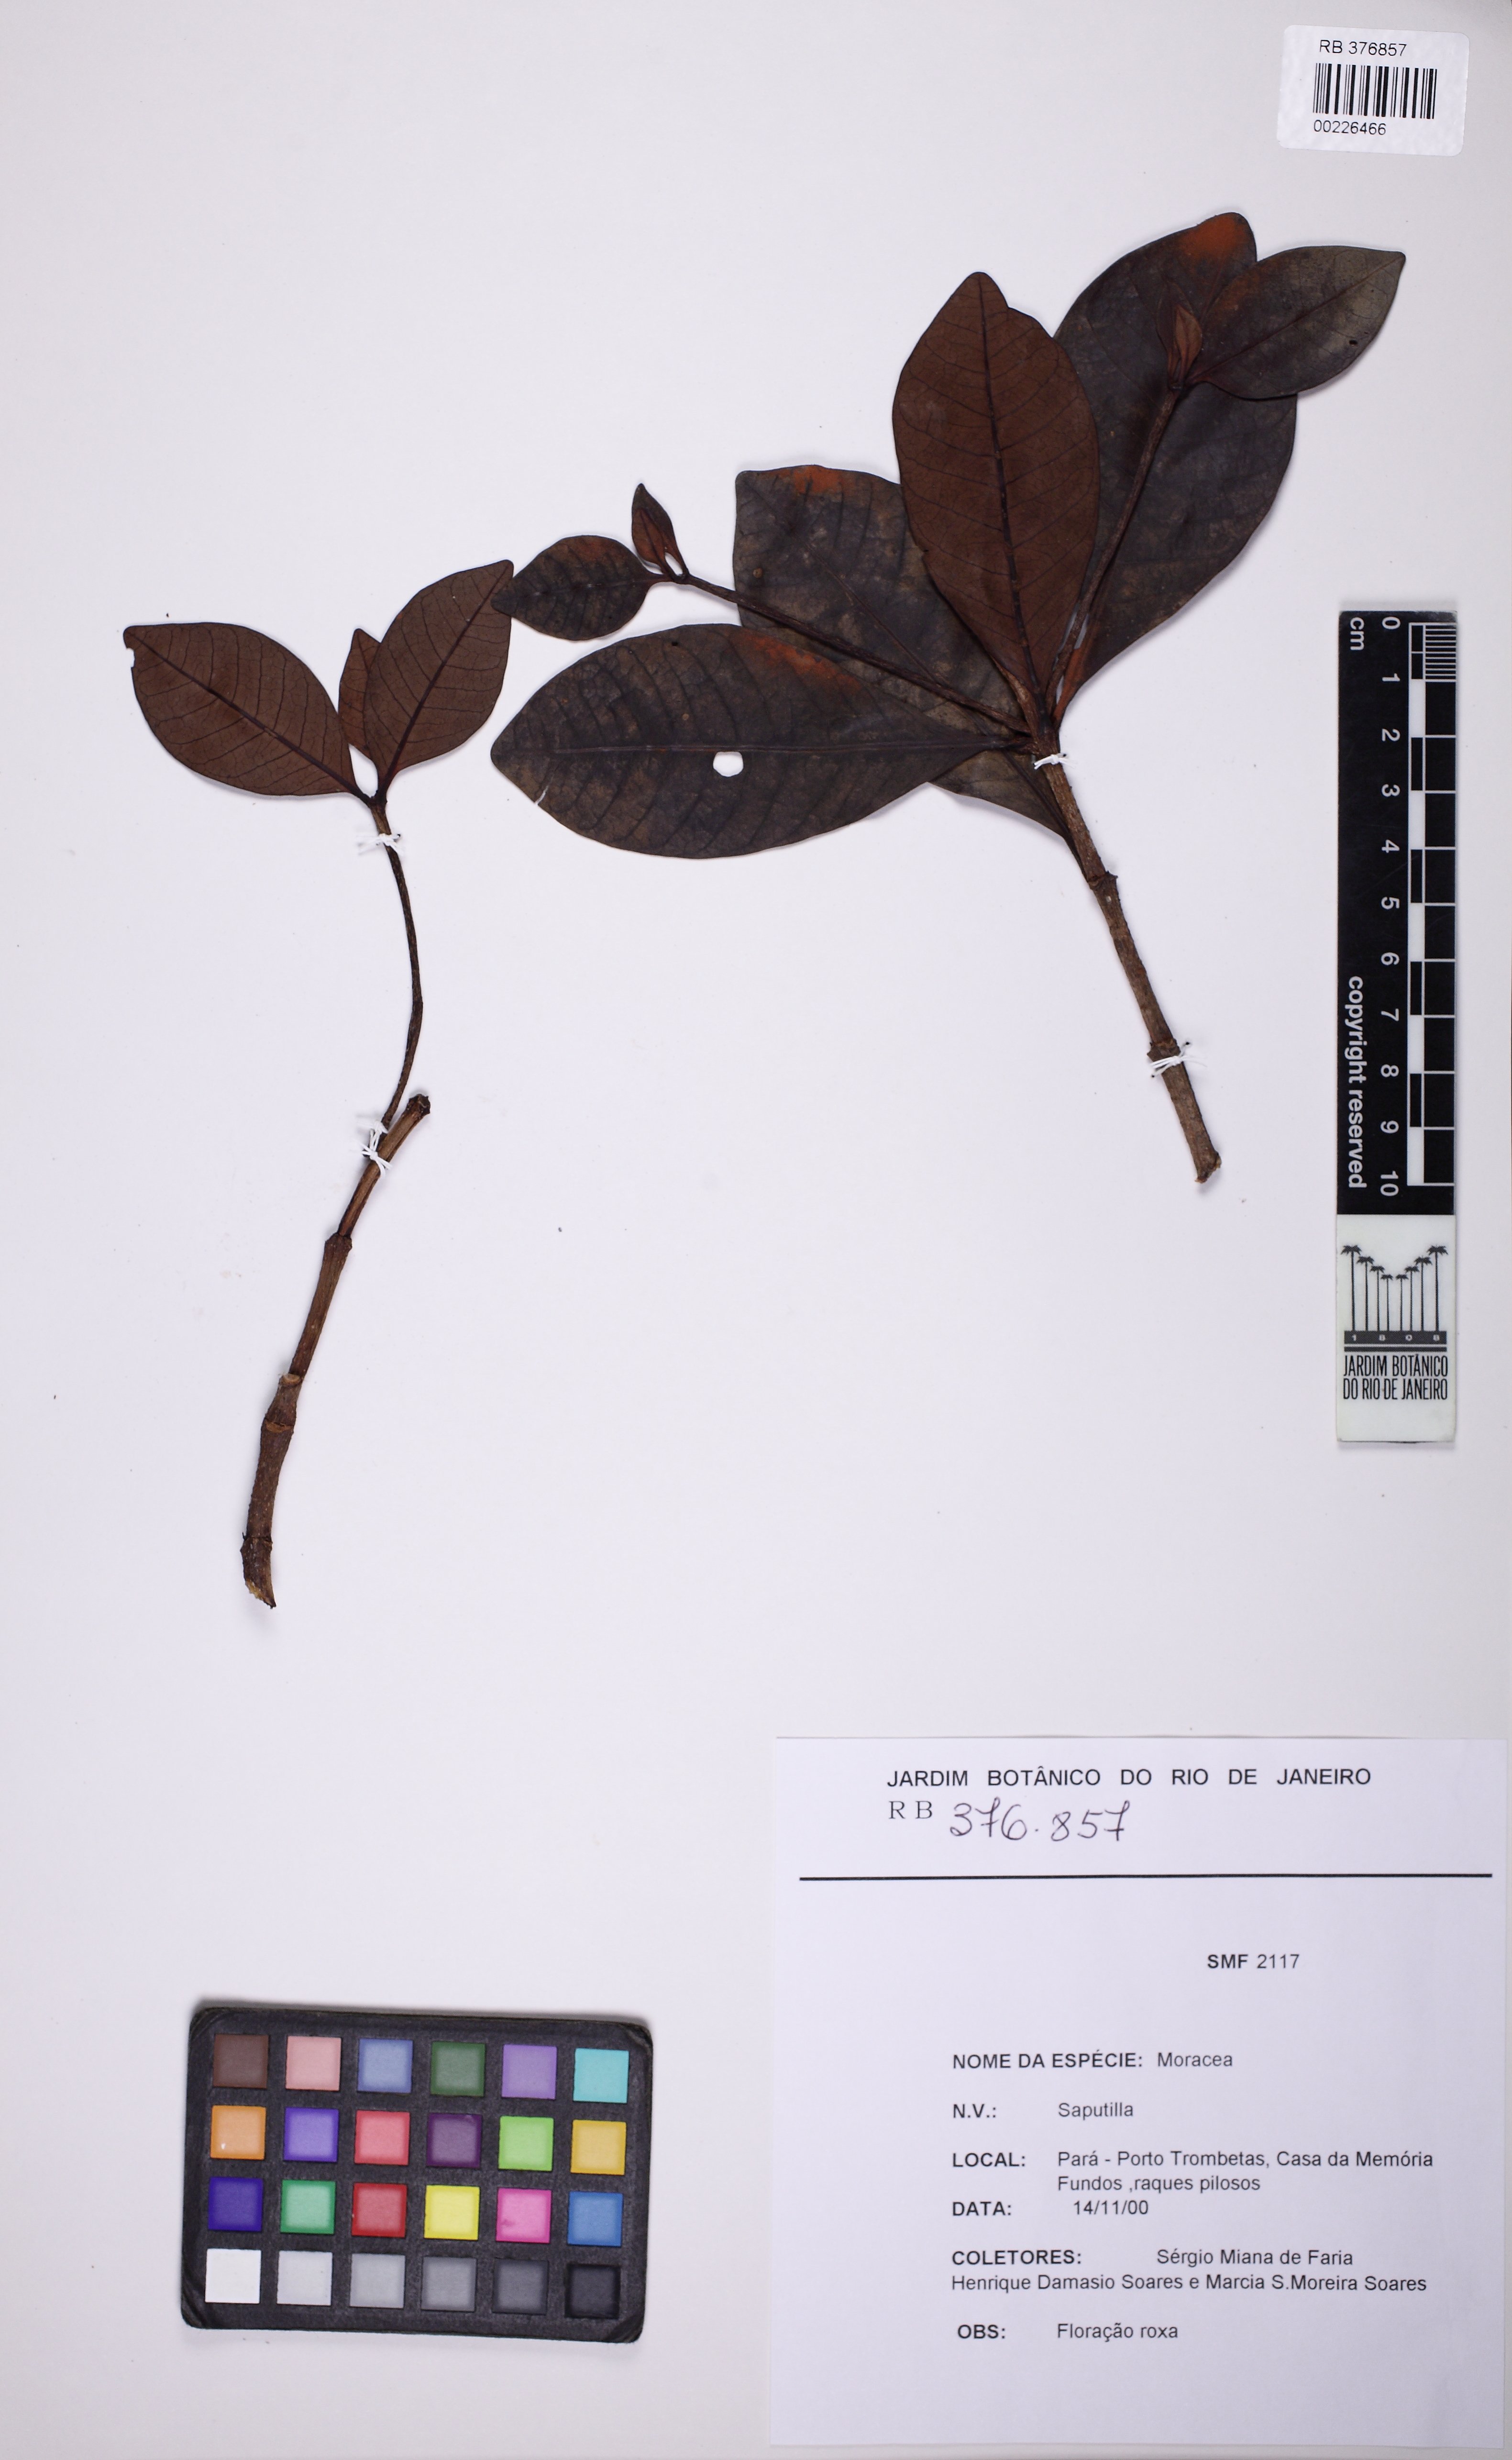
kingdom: Plantae
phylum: Tracheophyta
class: Magnoliopsida
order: Rosales
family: Moraceae
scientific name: Moraceae
